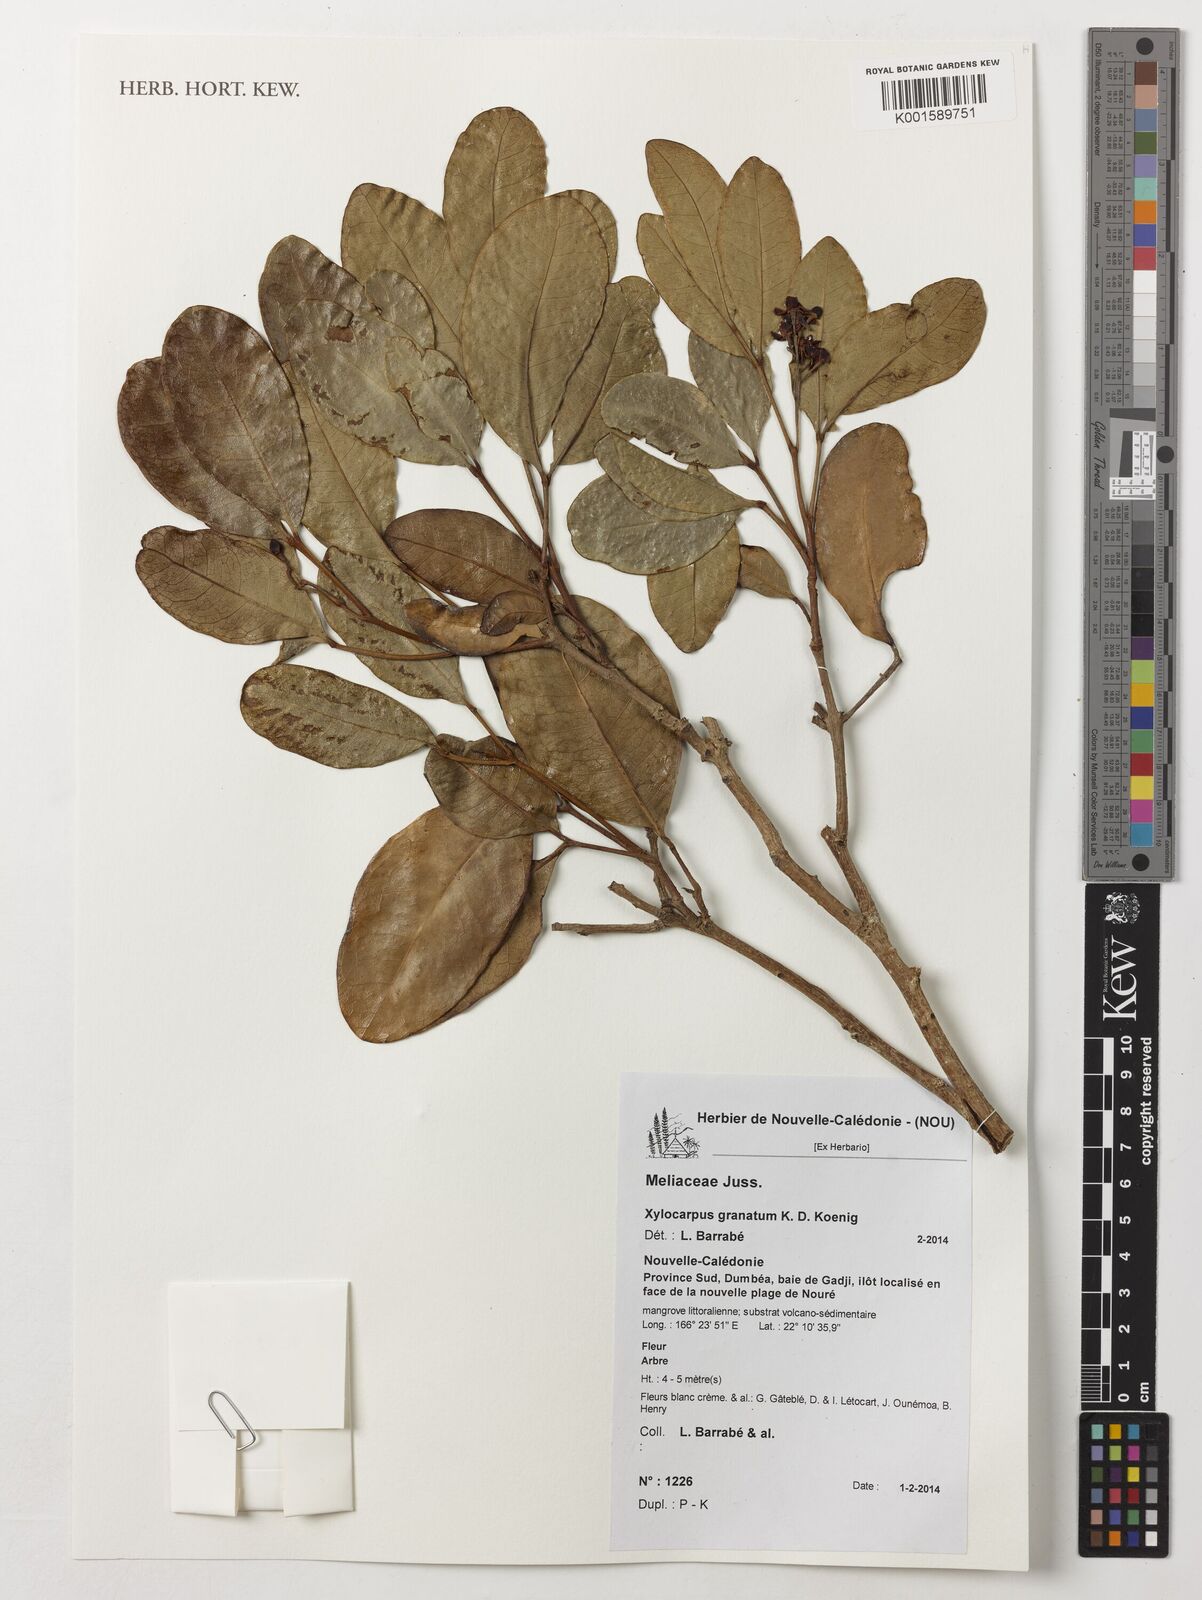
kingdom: Plantae
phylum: Tracheophyta
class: Magnoliopsida
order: Sapindales
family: Meliaceae
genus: Xylocarpus
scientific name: Xylocarpus granatum
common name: Apple mangrove
